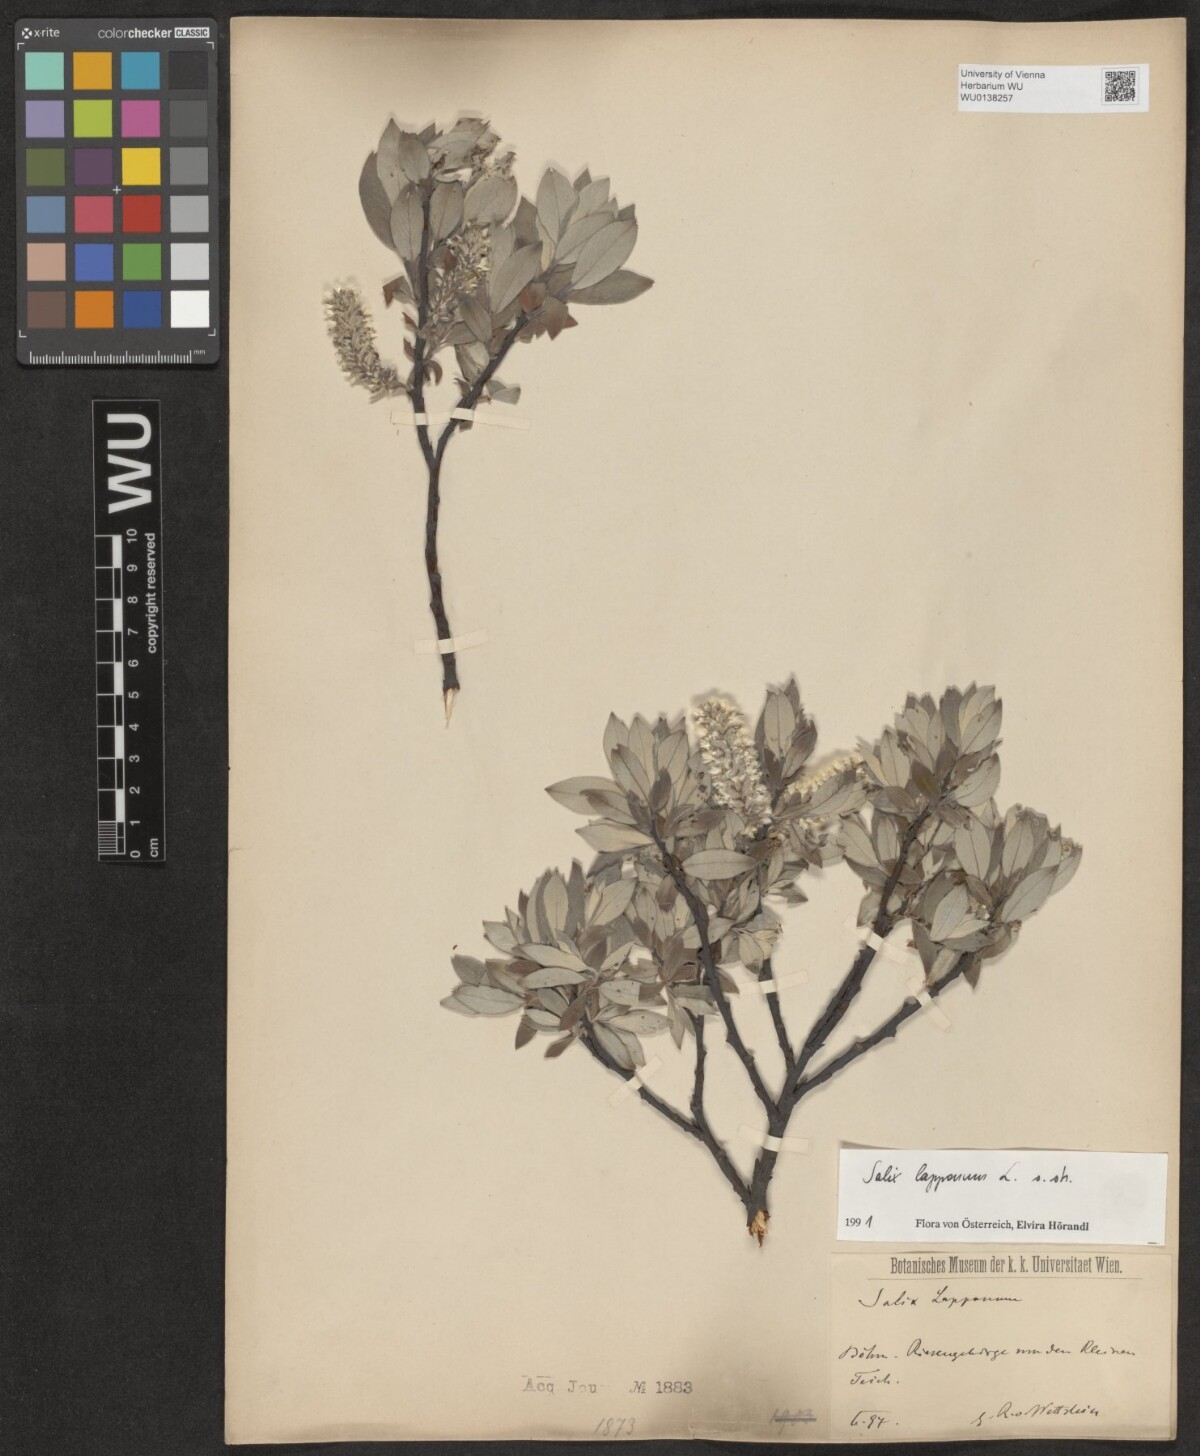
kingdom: Plantae
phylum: Tracheophyta
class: Magnoliopsida
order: Malpighiales
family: Salicaceae
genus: Salix
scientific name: Salix lapponum
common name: Downy willow
